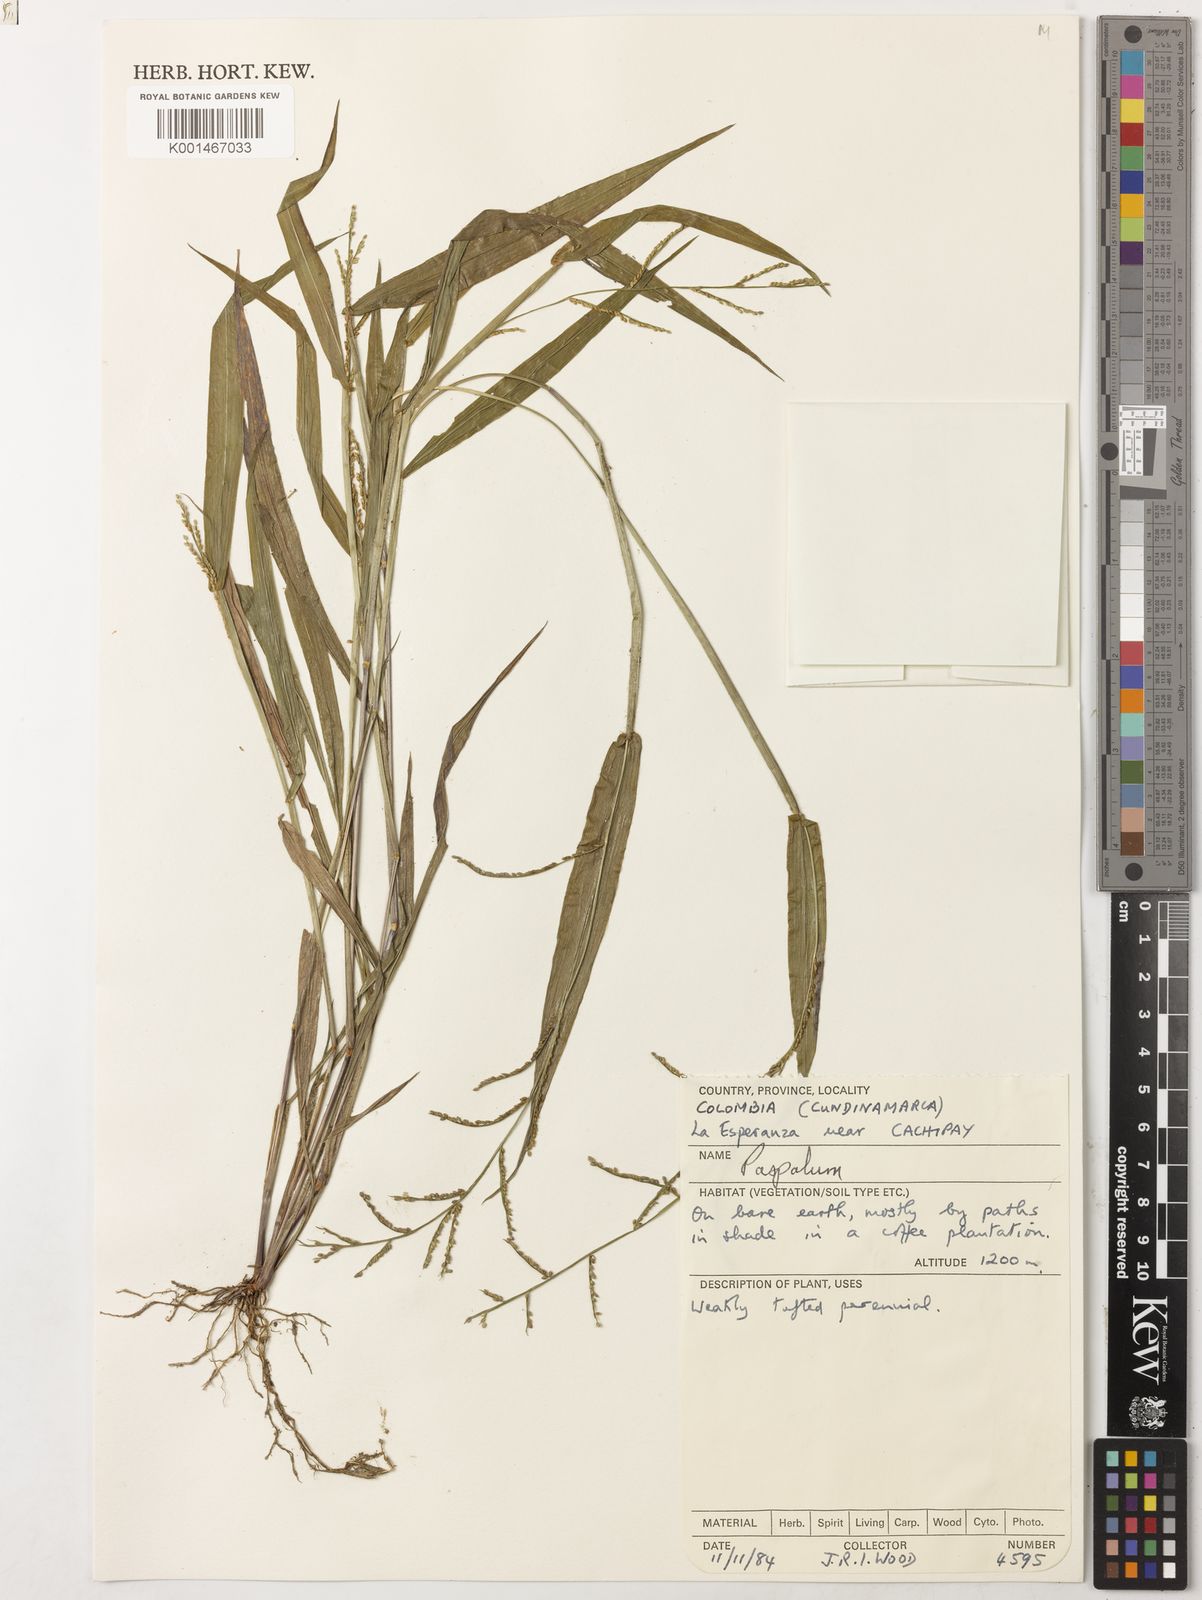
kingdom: Plantae
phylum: Tracheophyta
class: Liliopsida
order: Poales
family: Poaceae
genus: Paspalum
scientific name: Paspalum microstachyum
